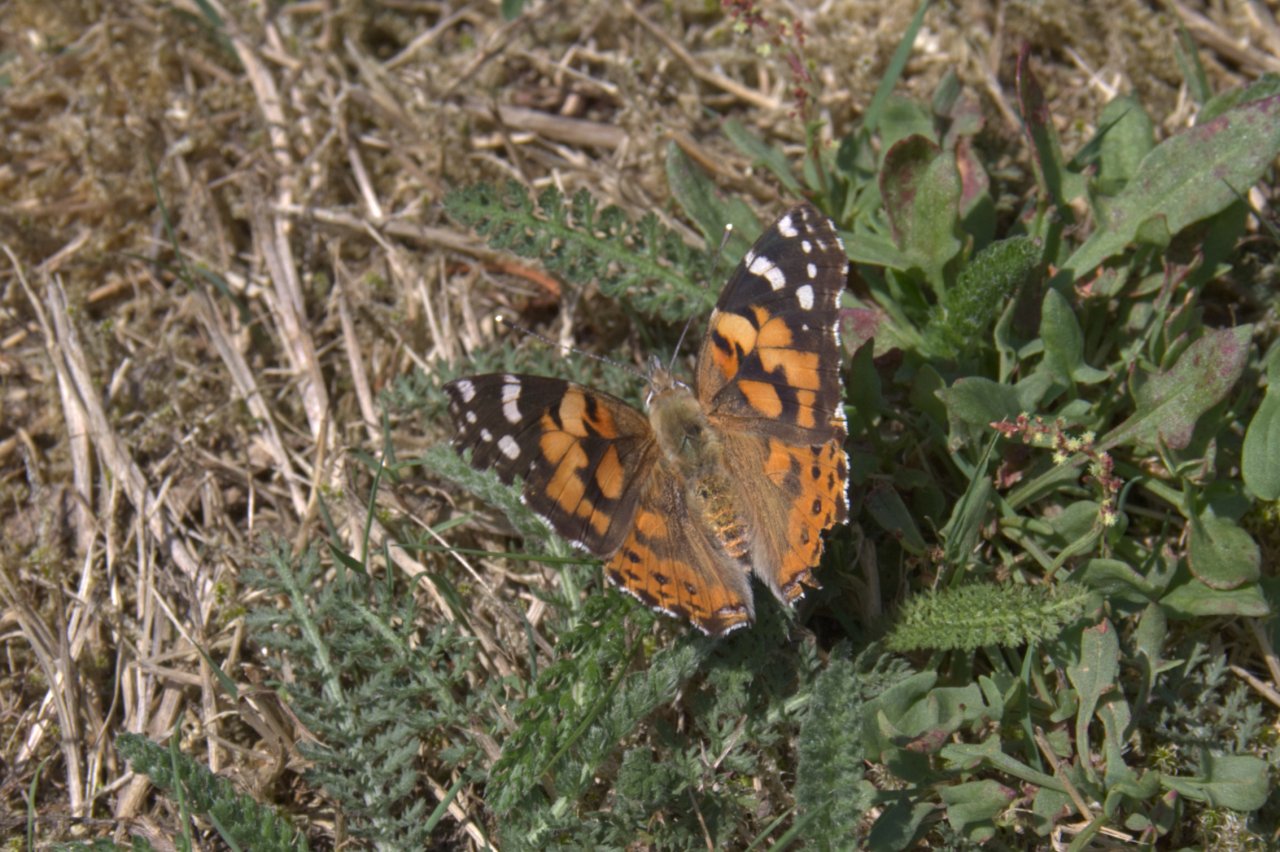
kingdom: Animalia
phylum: Arthropoda
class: Insecta
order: Lepidoptera
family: Nymphalidae
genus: Vanessa
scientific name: Vanessa cardui
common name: Painted Lady
